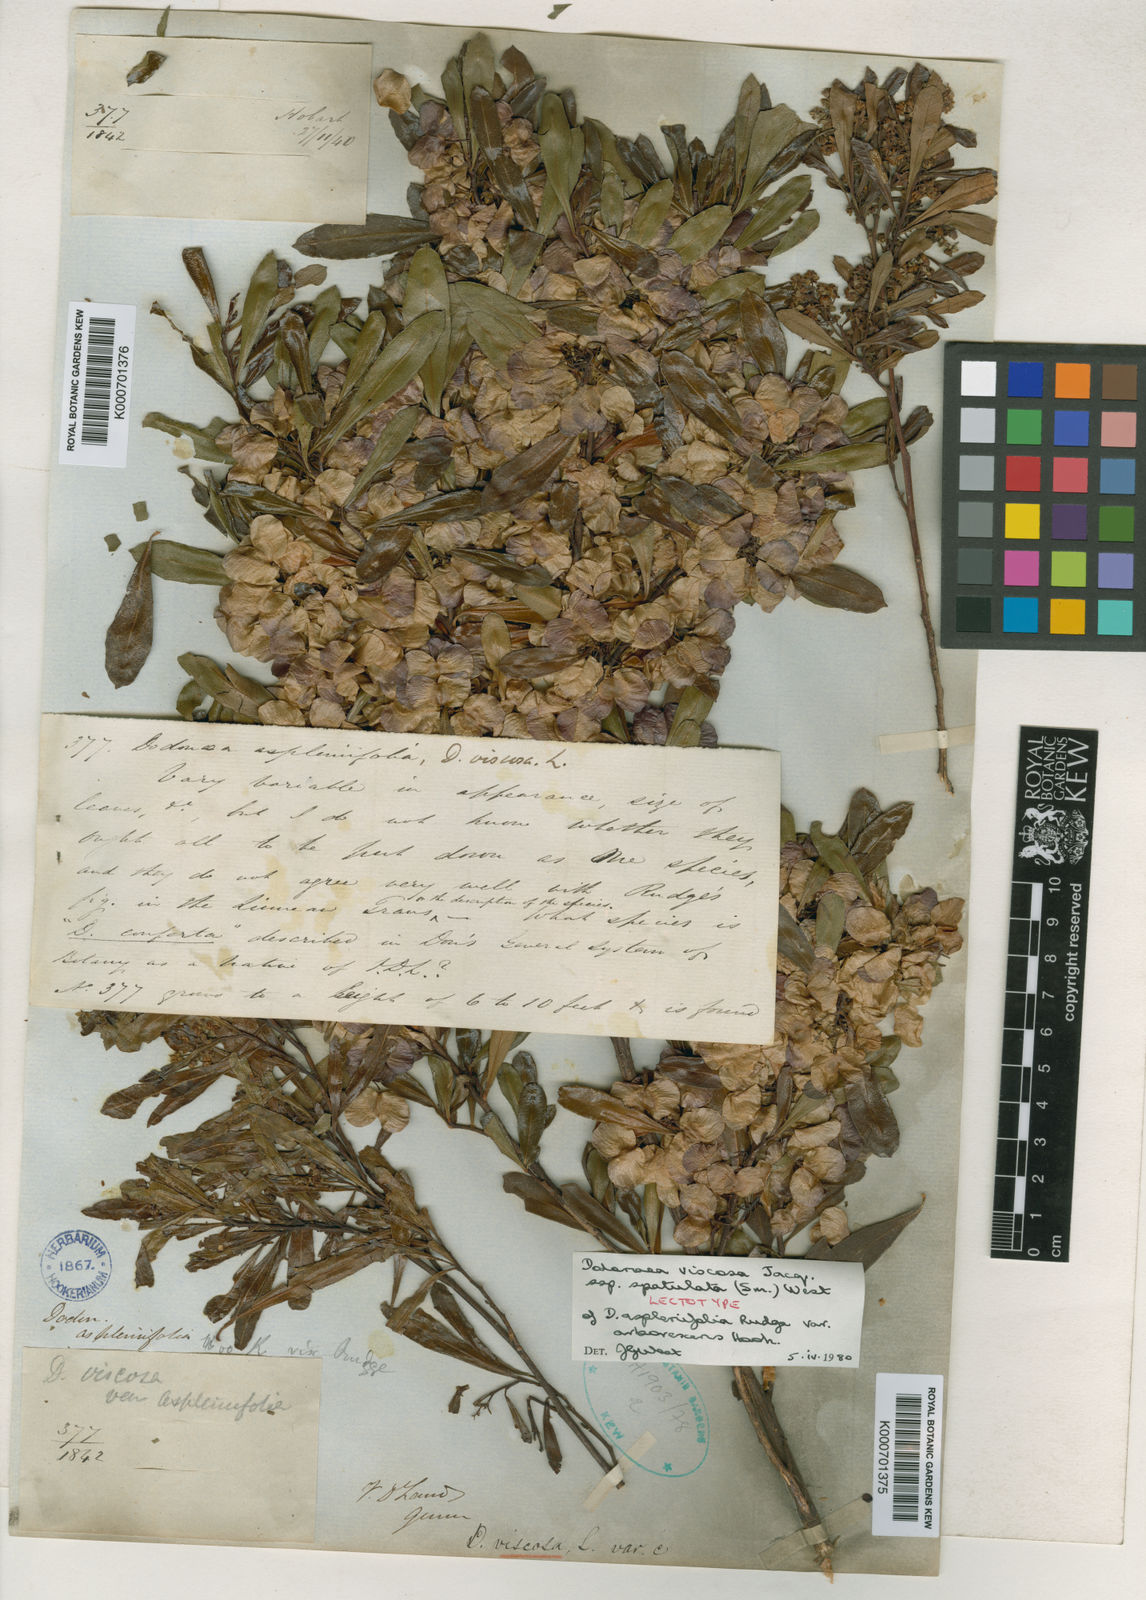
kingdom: Plantae
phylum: Tracheophyta
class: Magnoliopsida
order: Sapindales
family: Sapindaceae
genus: Dodonaea
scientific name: Dodonaea viscosa
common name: Hopbush
